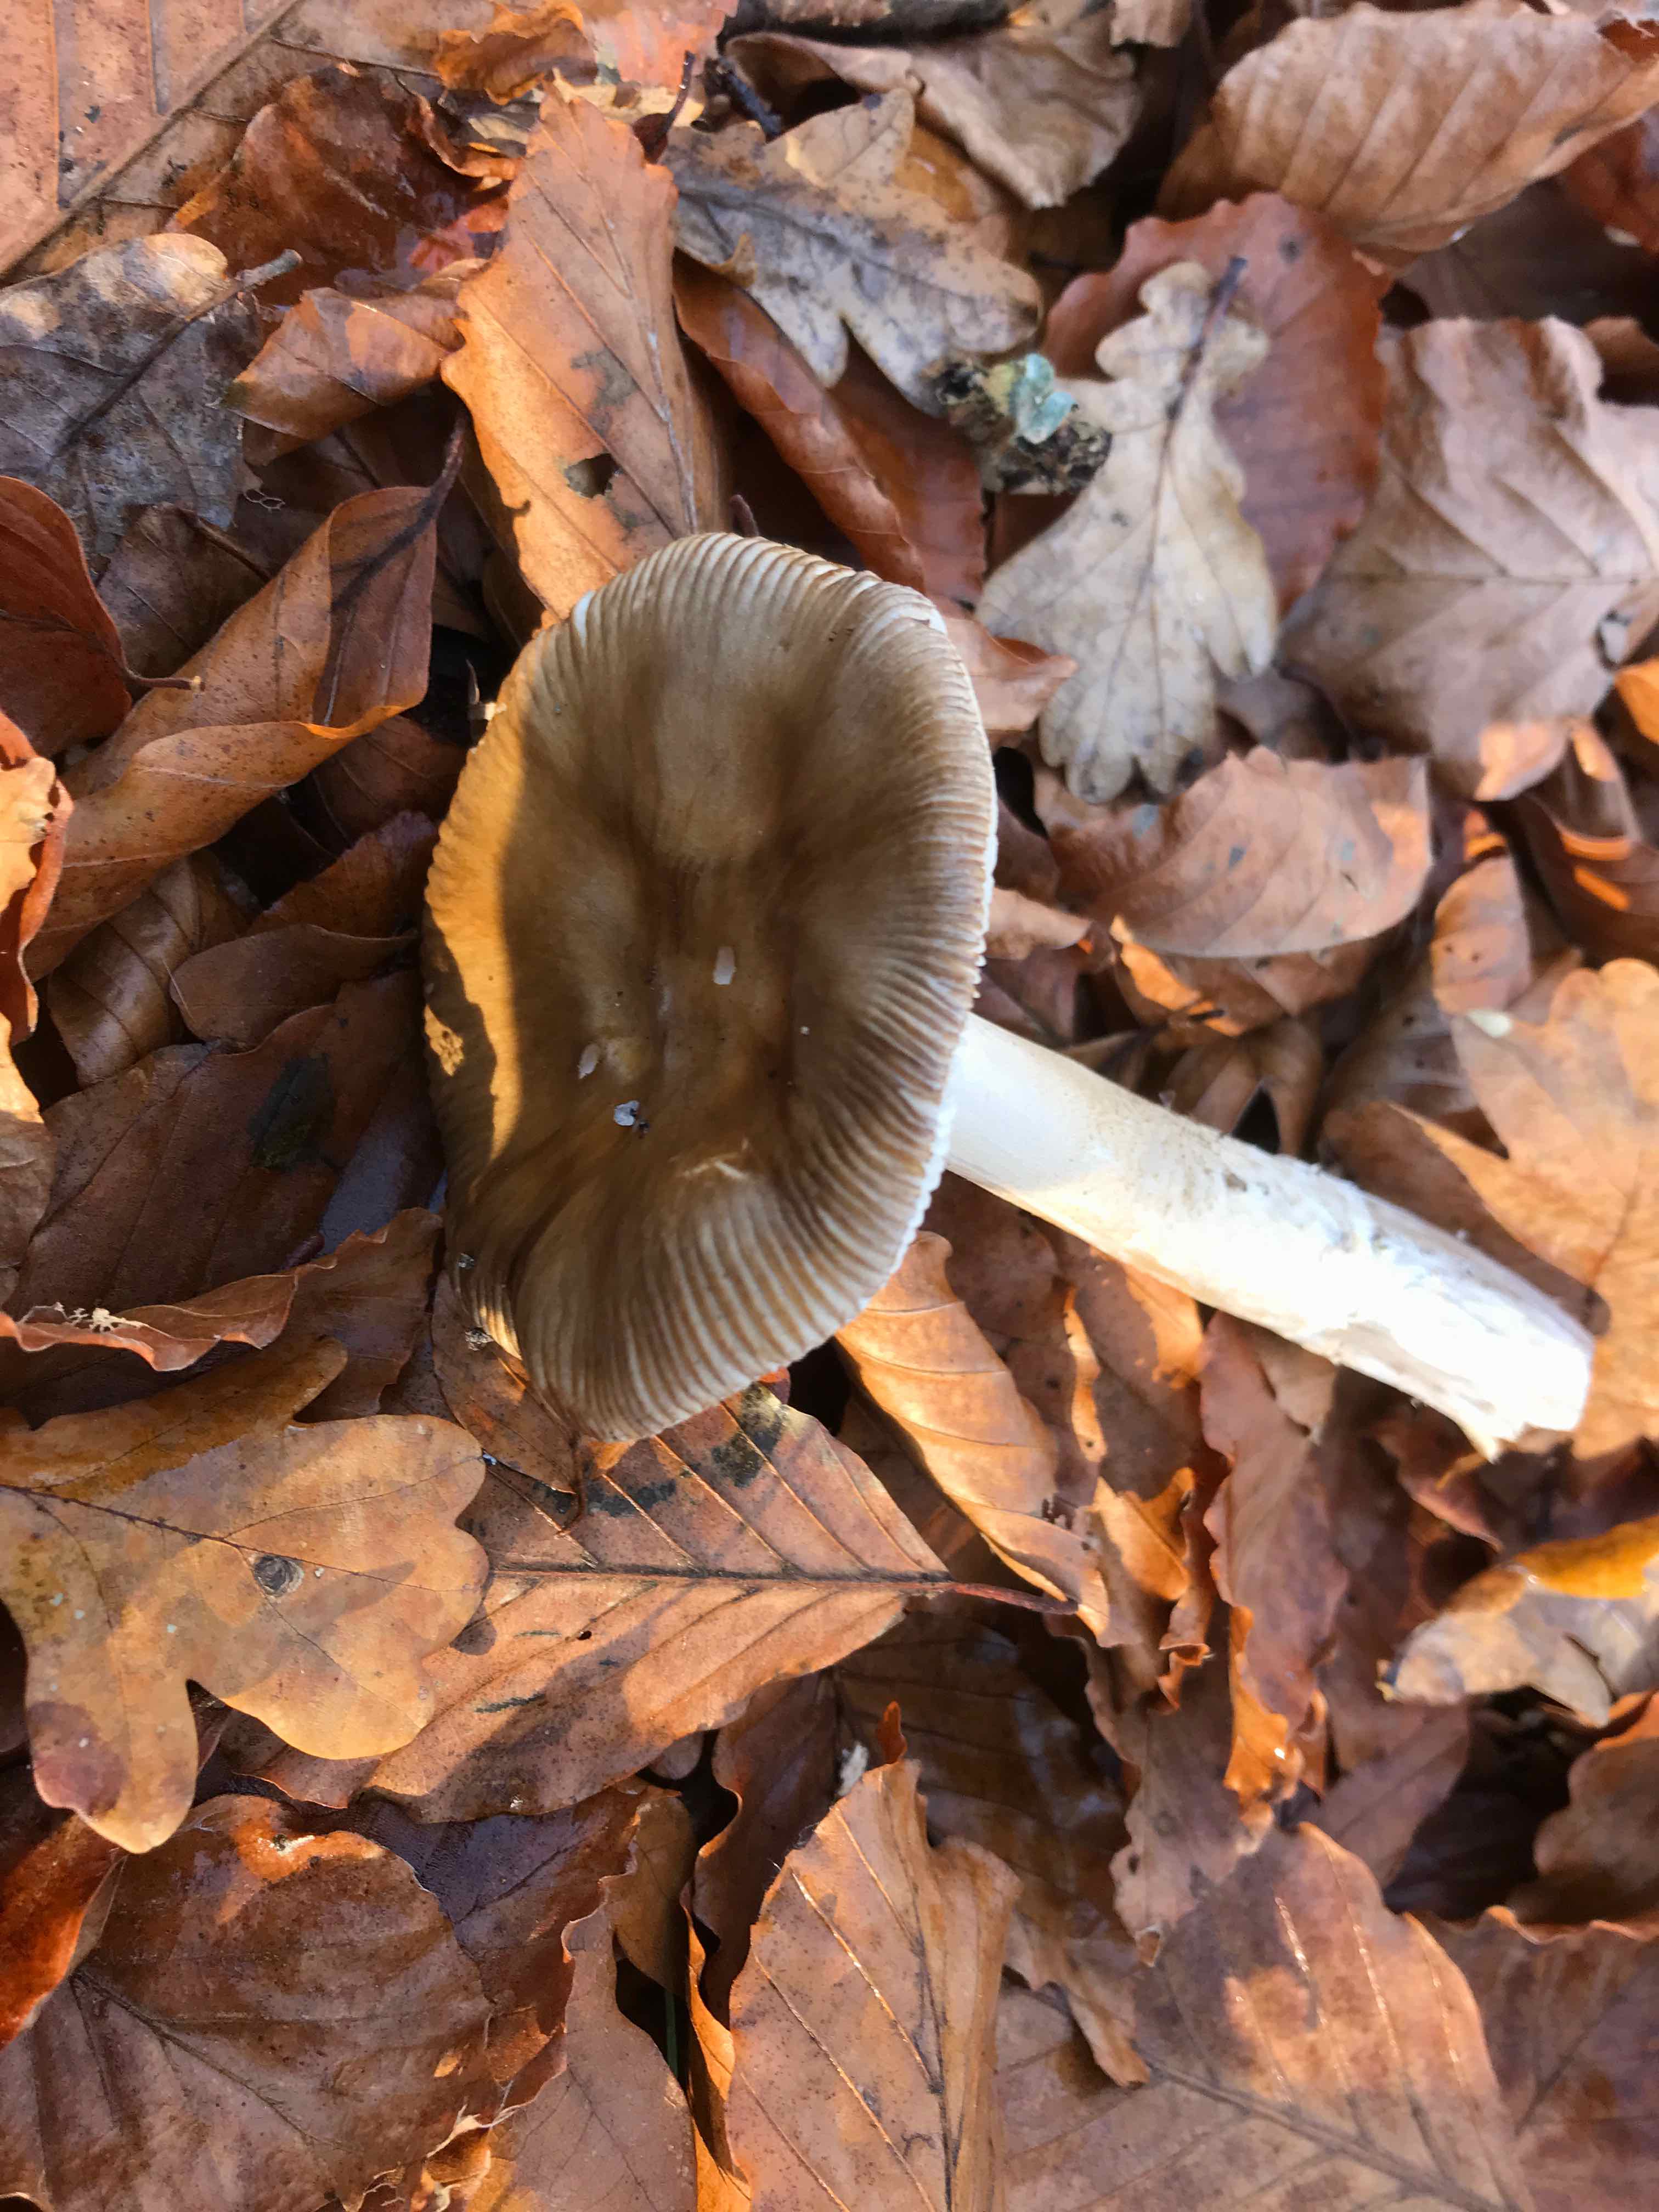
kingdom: Fungi
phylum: Basidiomycota
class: Agaricomycetes
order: Agaricales
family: Amanitaceae
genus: Amanita
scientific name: Amanita
